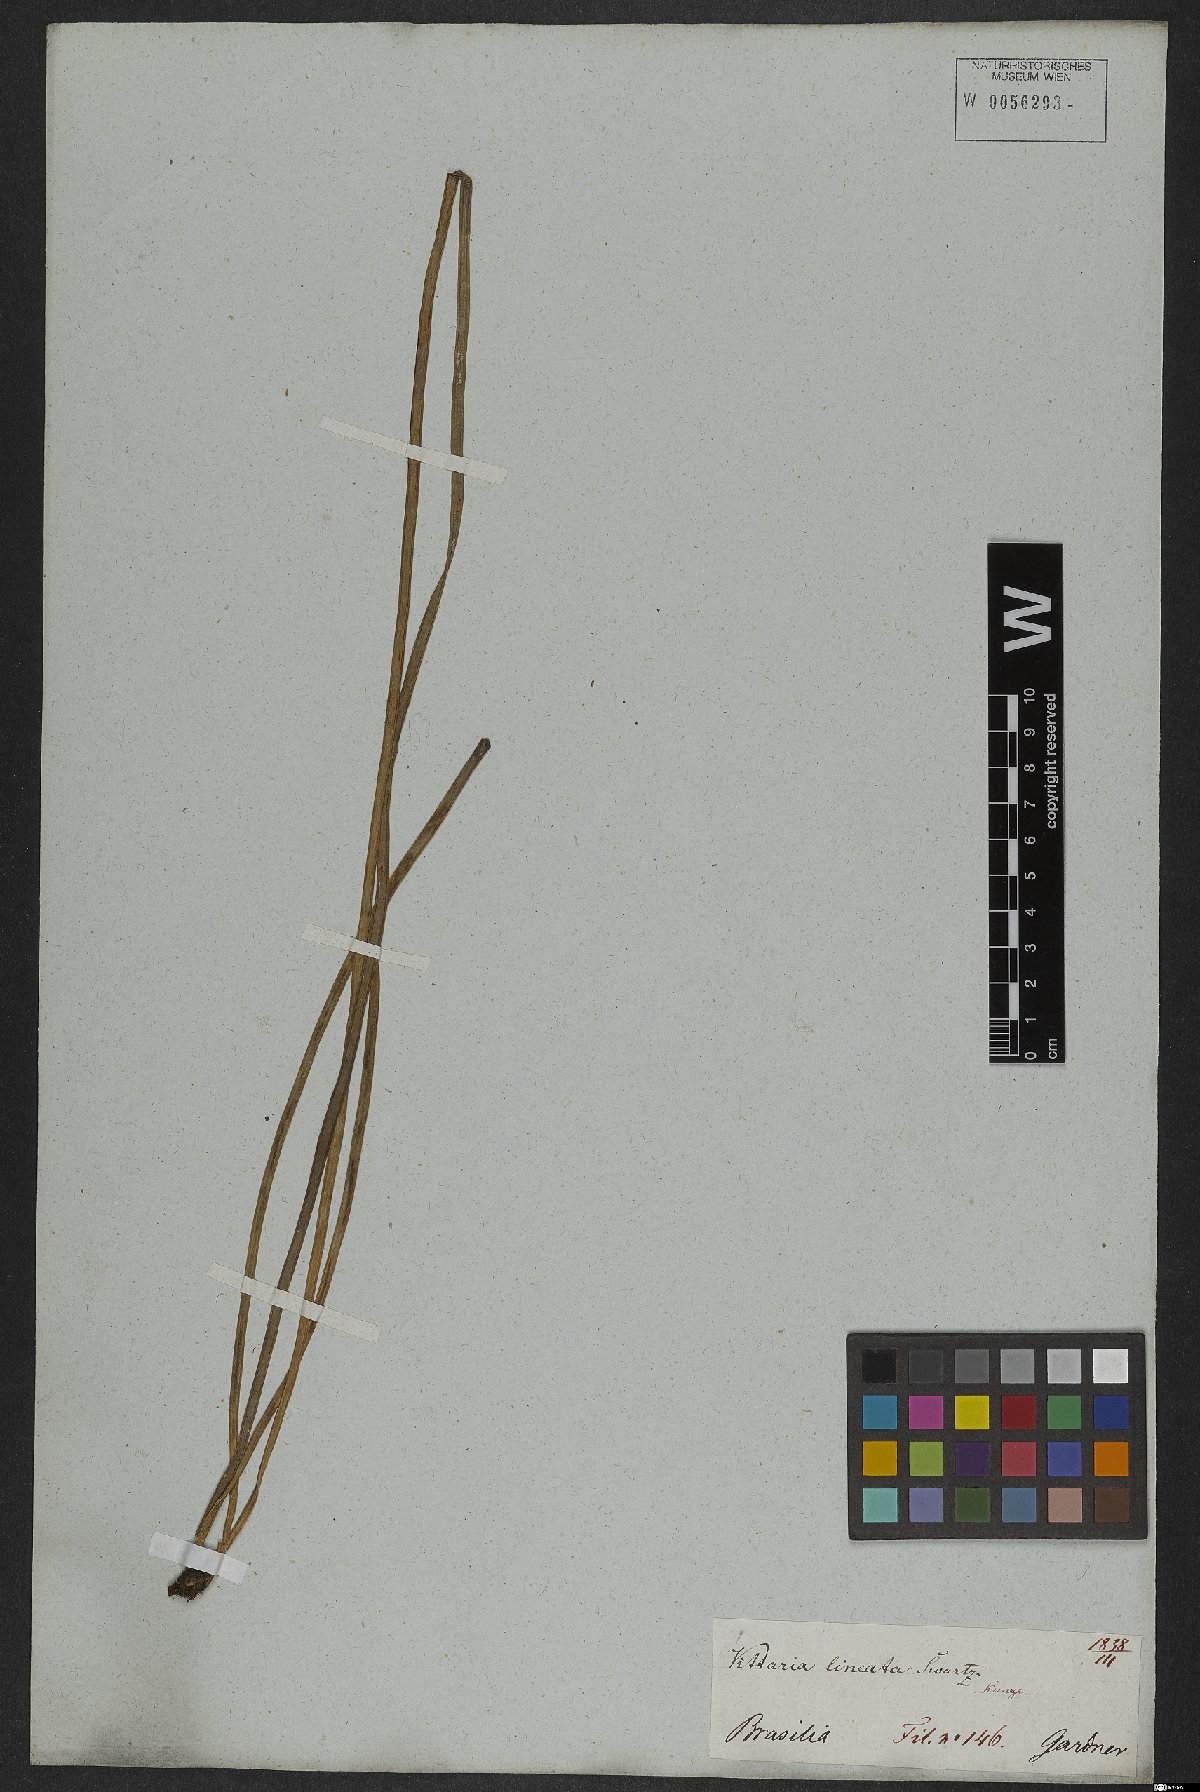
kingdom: Plantae
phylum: Tracheophyta
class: Polypodiopsida
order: Polypodiales
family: Pteridaceae
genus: Vittaria
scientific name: Vittaria lineata
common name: Shoestring fern
